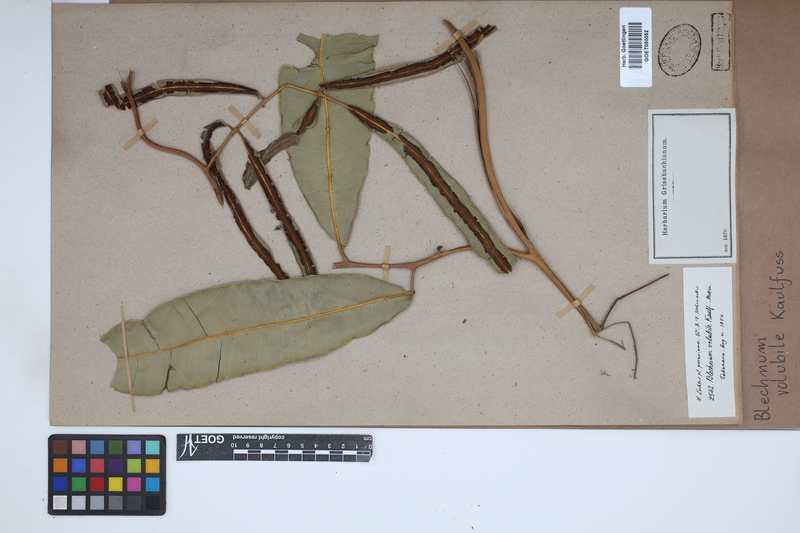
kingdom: Plantae
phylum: Tracheophyta
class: Polypodiopsida
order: Polypodiales
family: Blechnaceae
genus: Salpichlaena
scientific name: Salpichlaena volubilis
